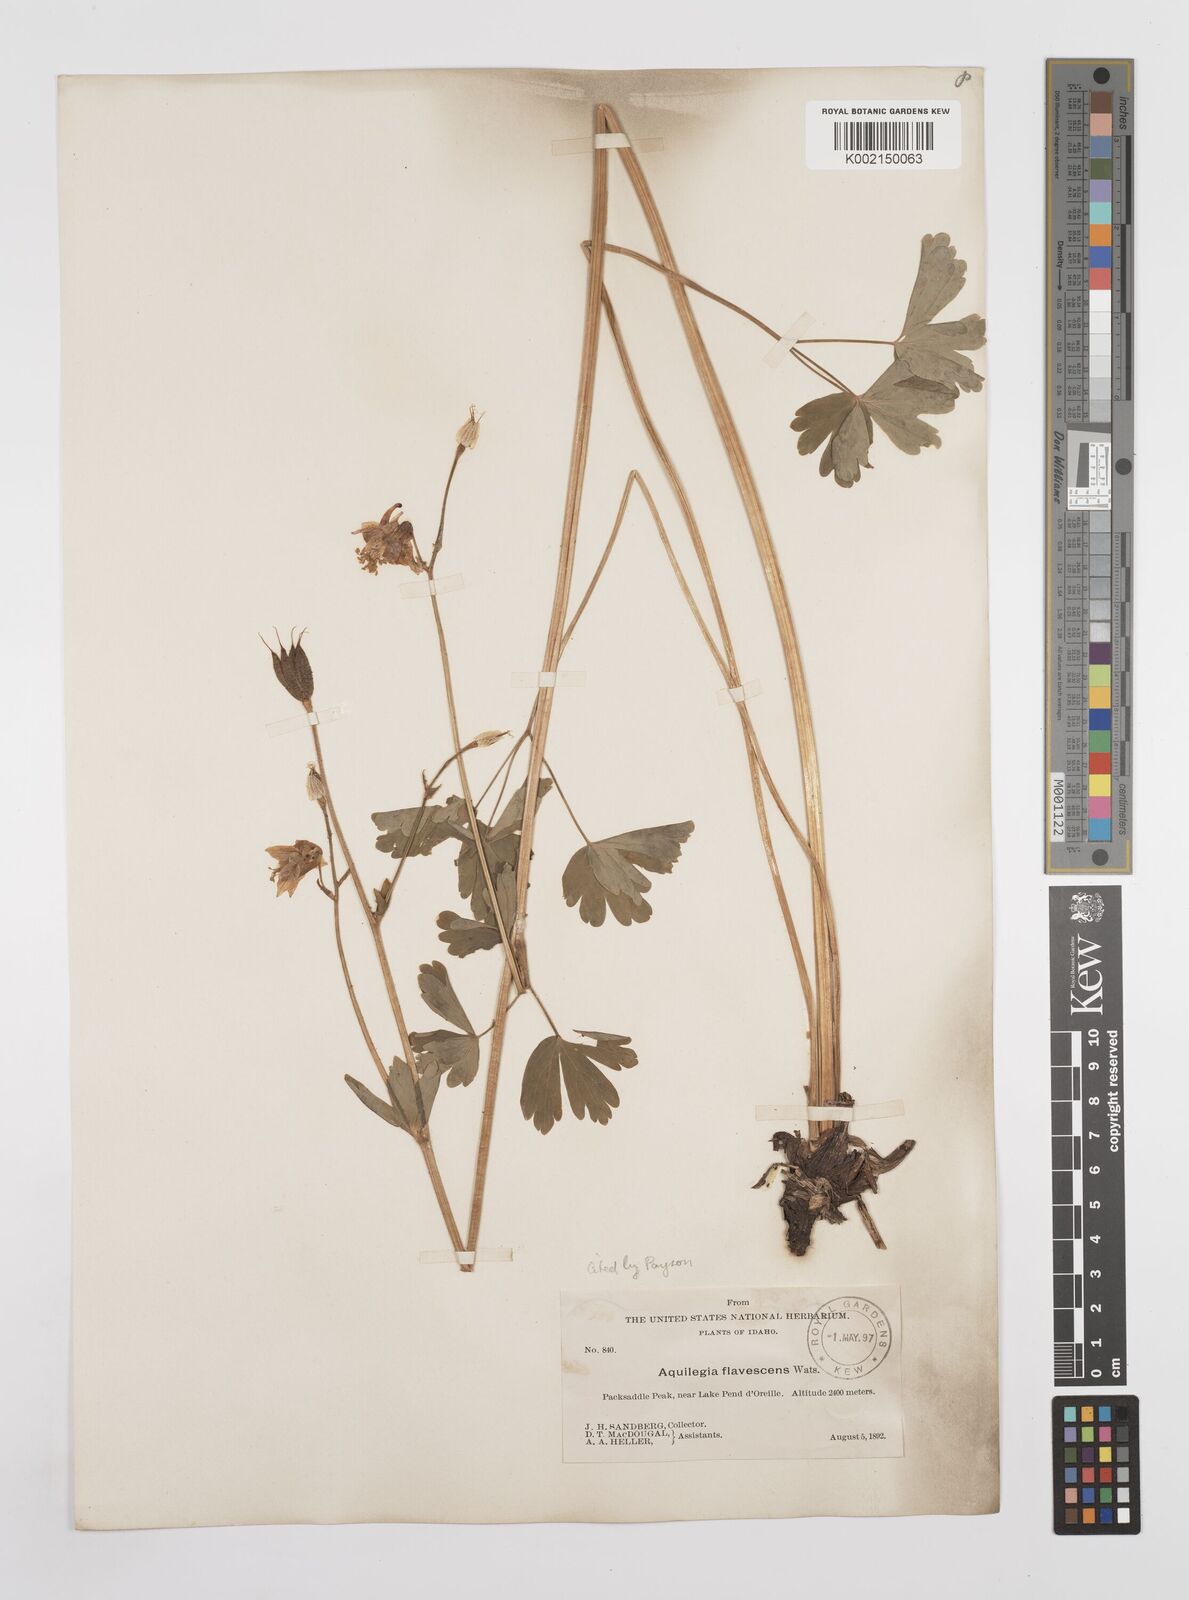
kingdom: Plantae
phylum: Tracheophyta
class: Magnoliopsida
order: Ranunculales
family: Ranunculaceae
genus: Aquilegia
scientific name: Aquilegia flavescens
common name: Yellow columbine
